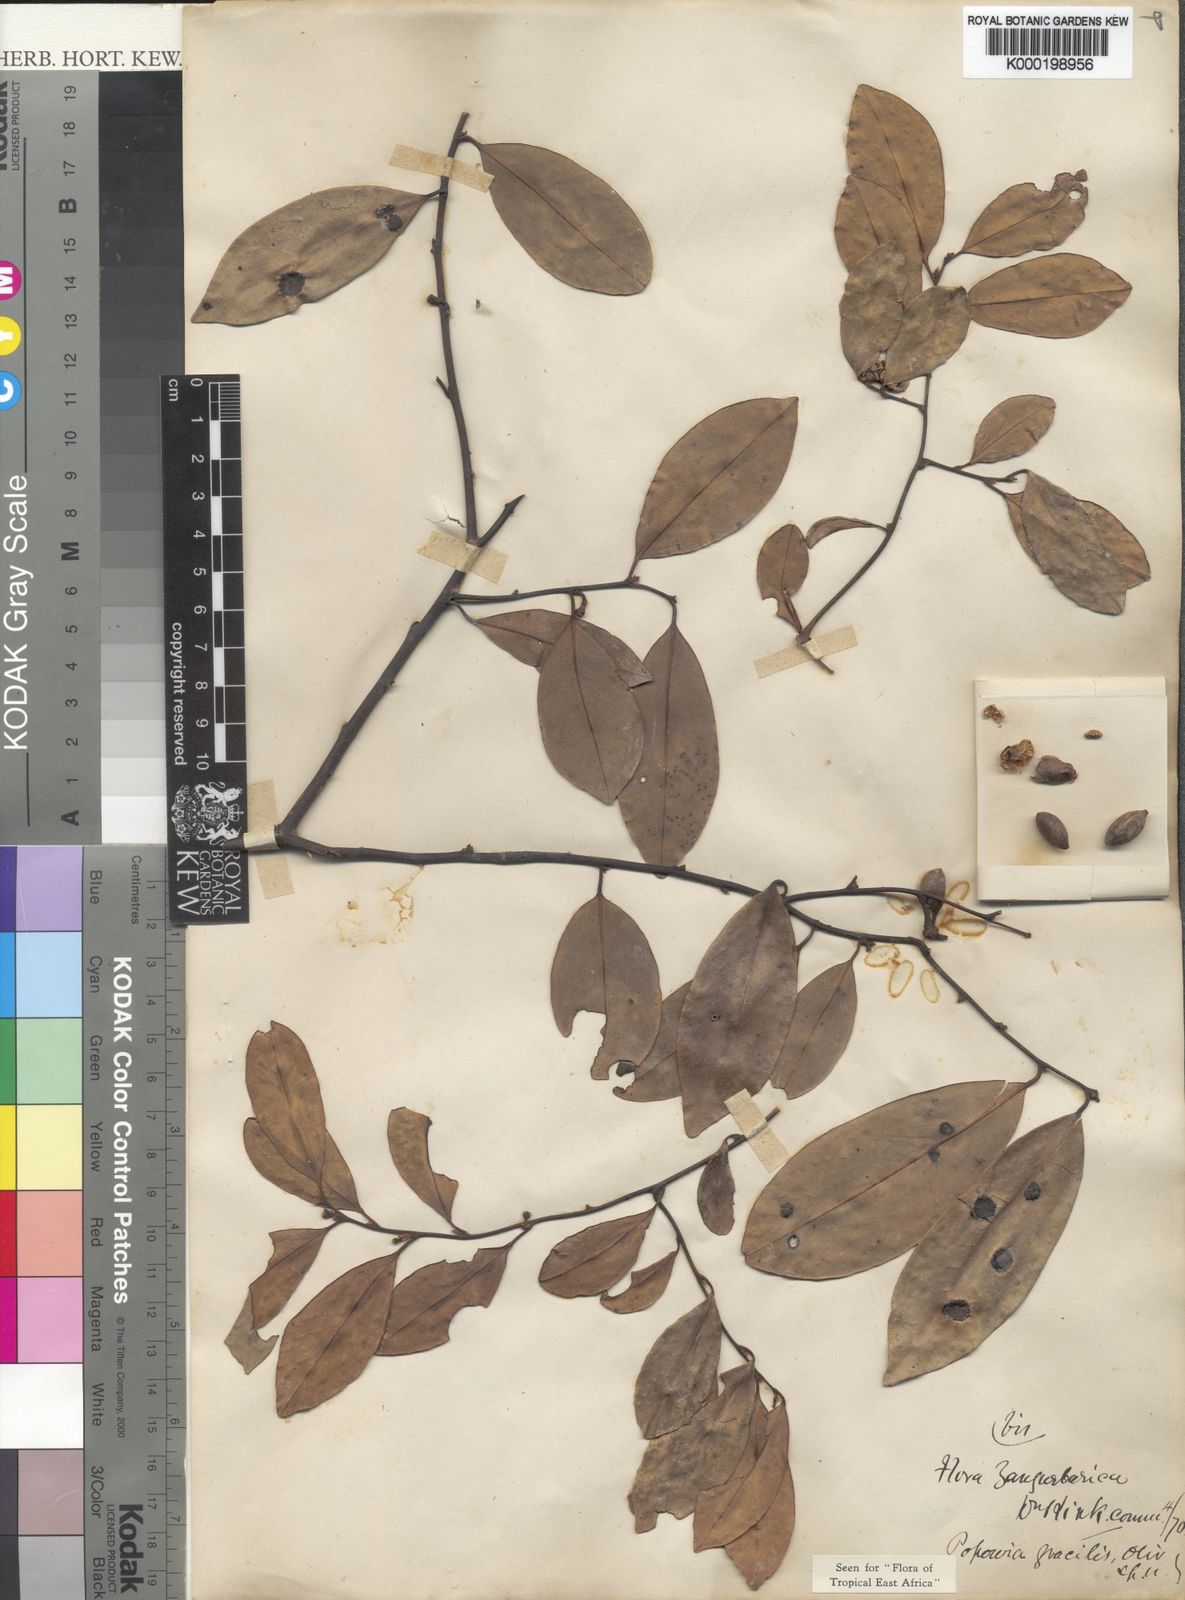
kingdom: Plantae
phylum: Tracheophyta
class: Magnoliopsida
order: Magnoliales
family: Annonaceae
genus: Sphaerocoryne
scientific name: Sphaerocoryne gracilis
